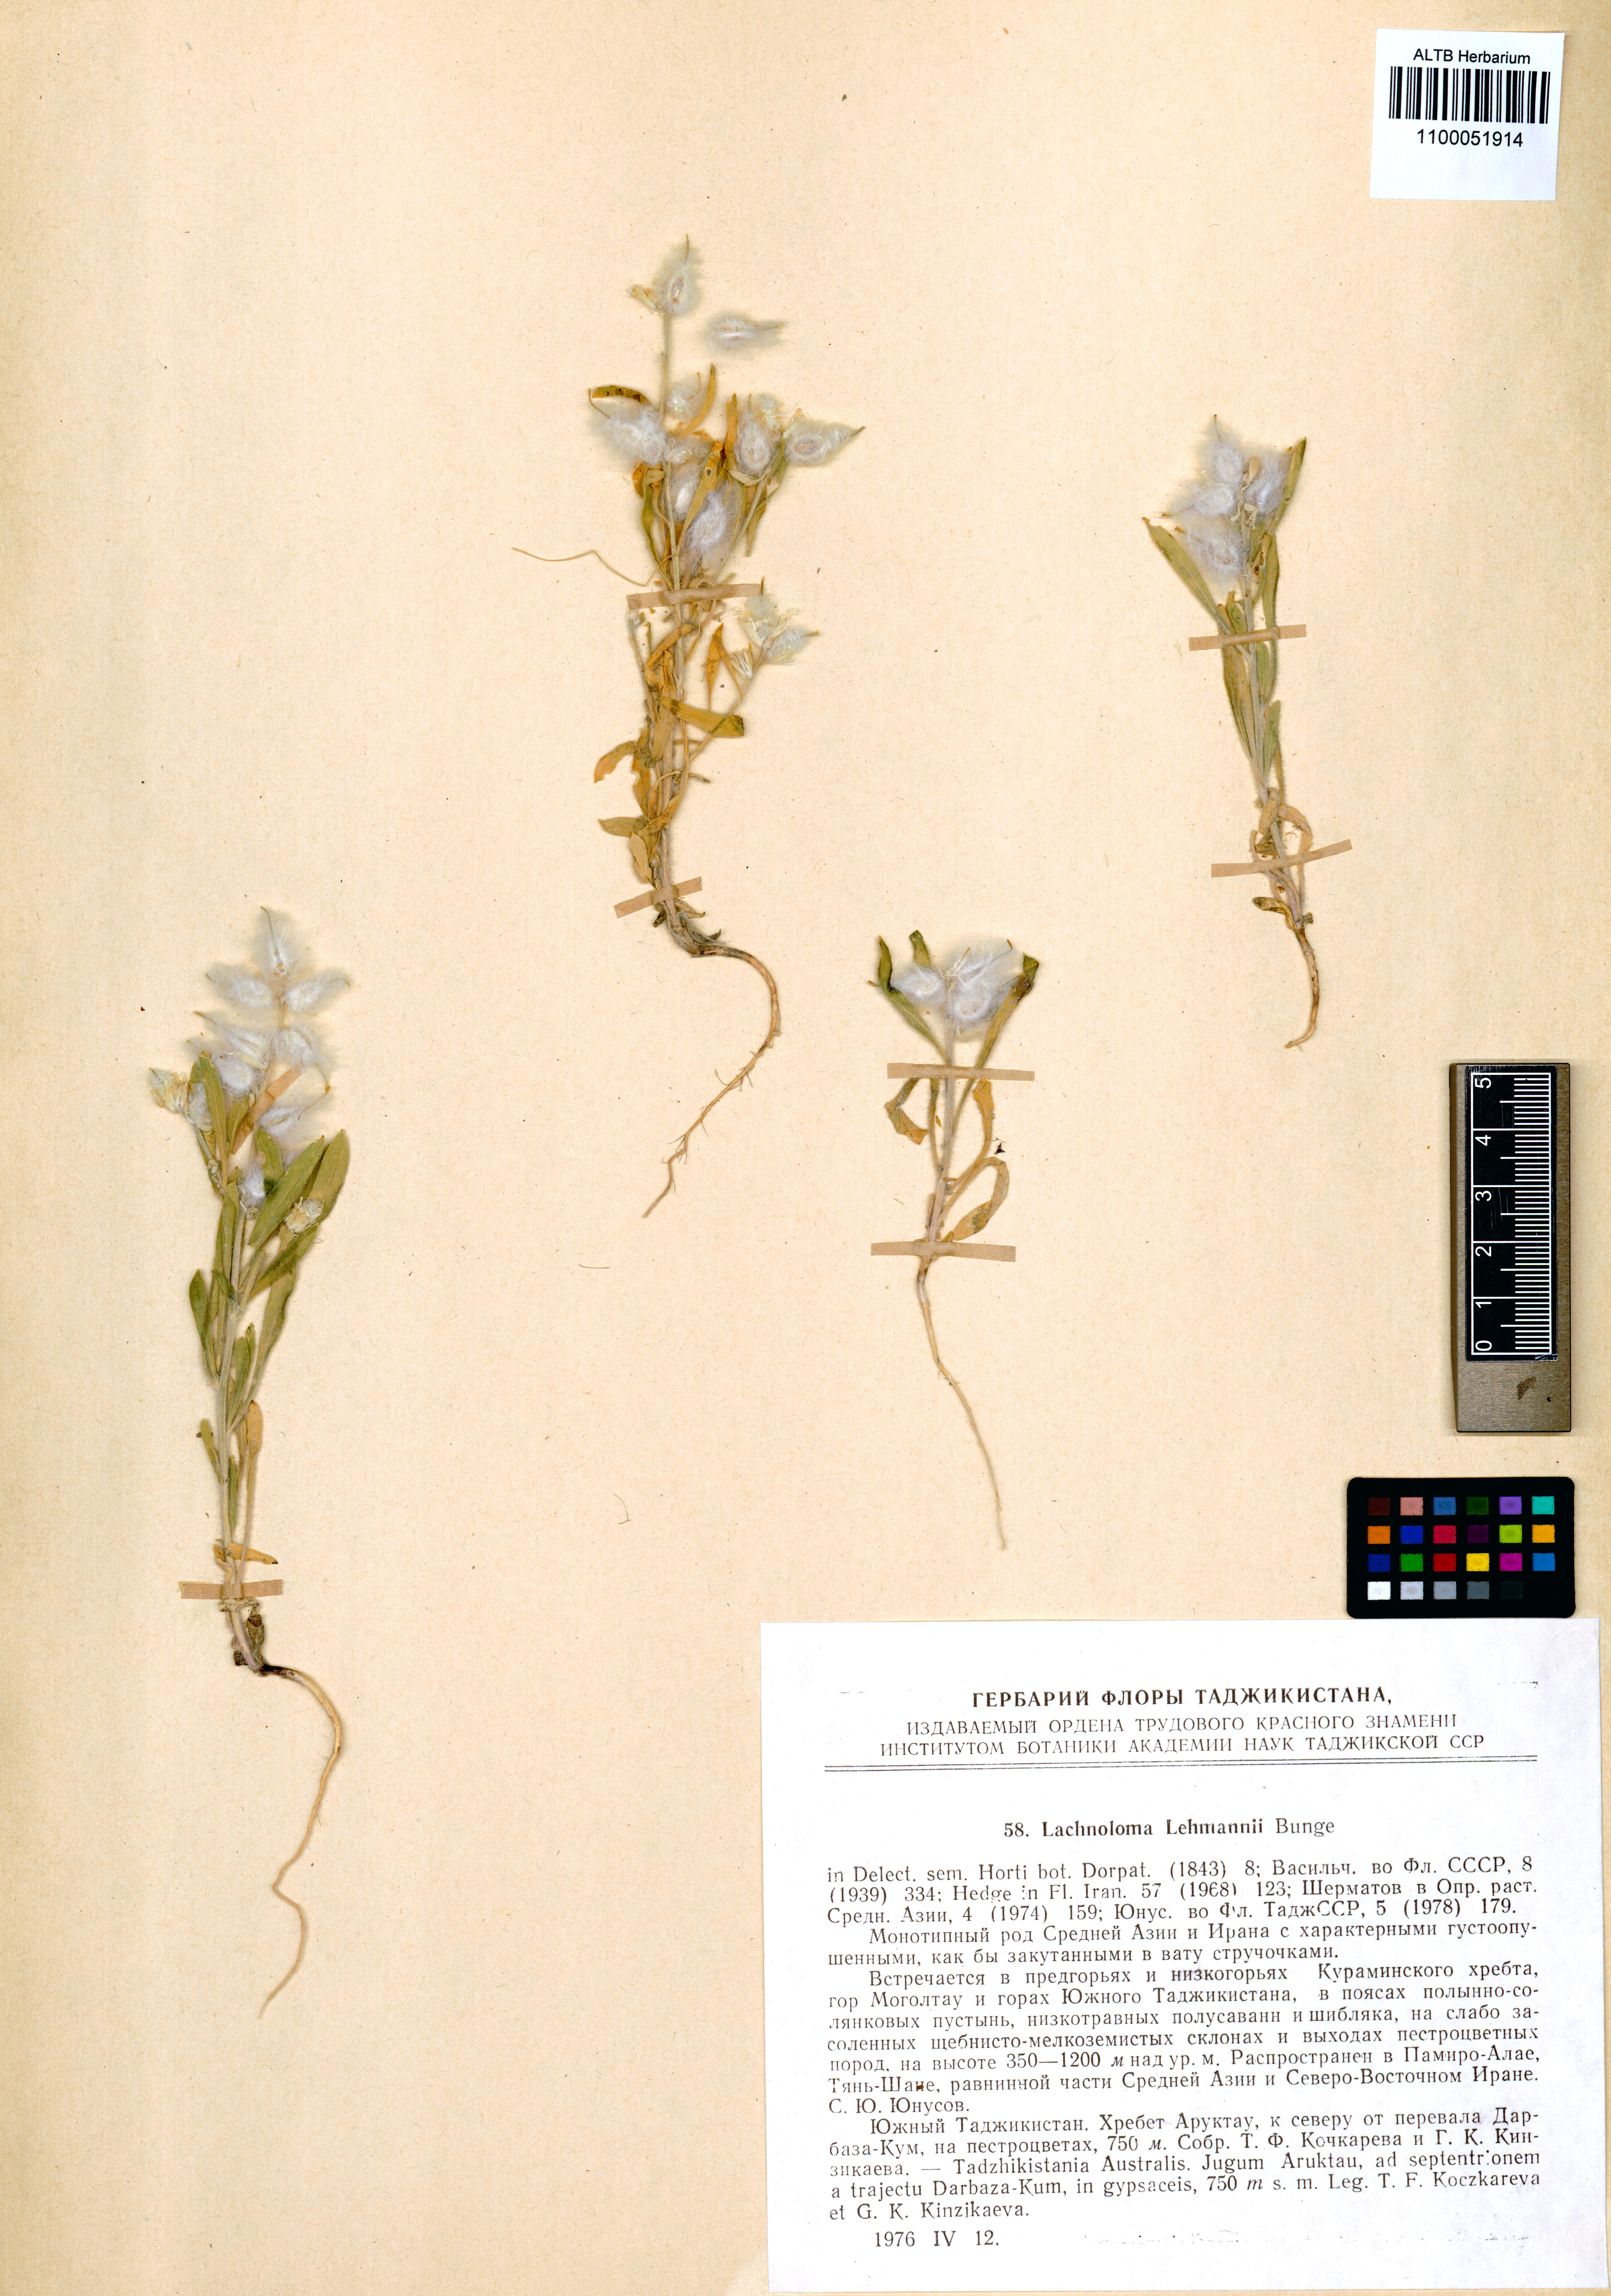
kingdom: Plantae
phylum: Tracheophyta
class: Magnoliopsida
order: Brassicales
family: Brassicaceae
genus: Lachnoloma
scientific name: Lachnoloma lehmannii
